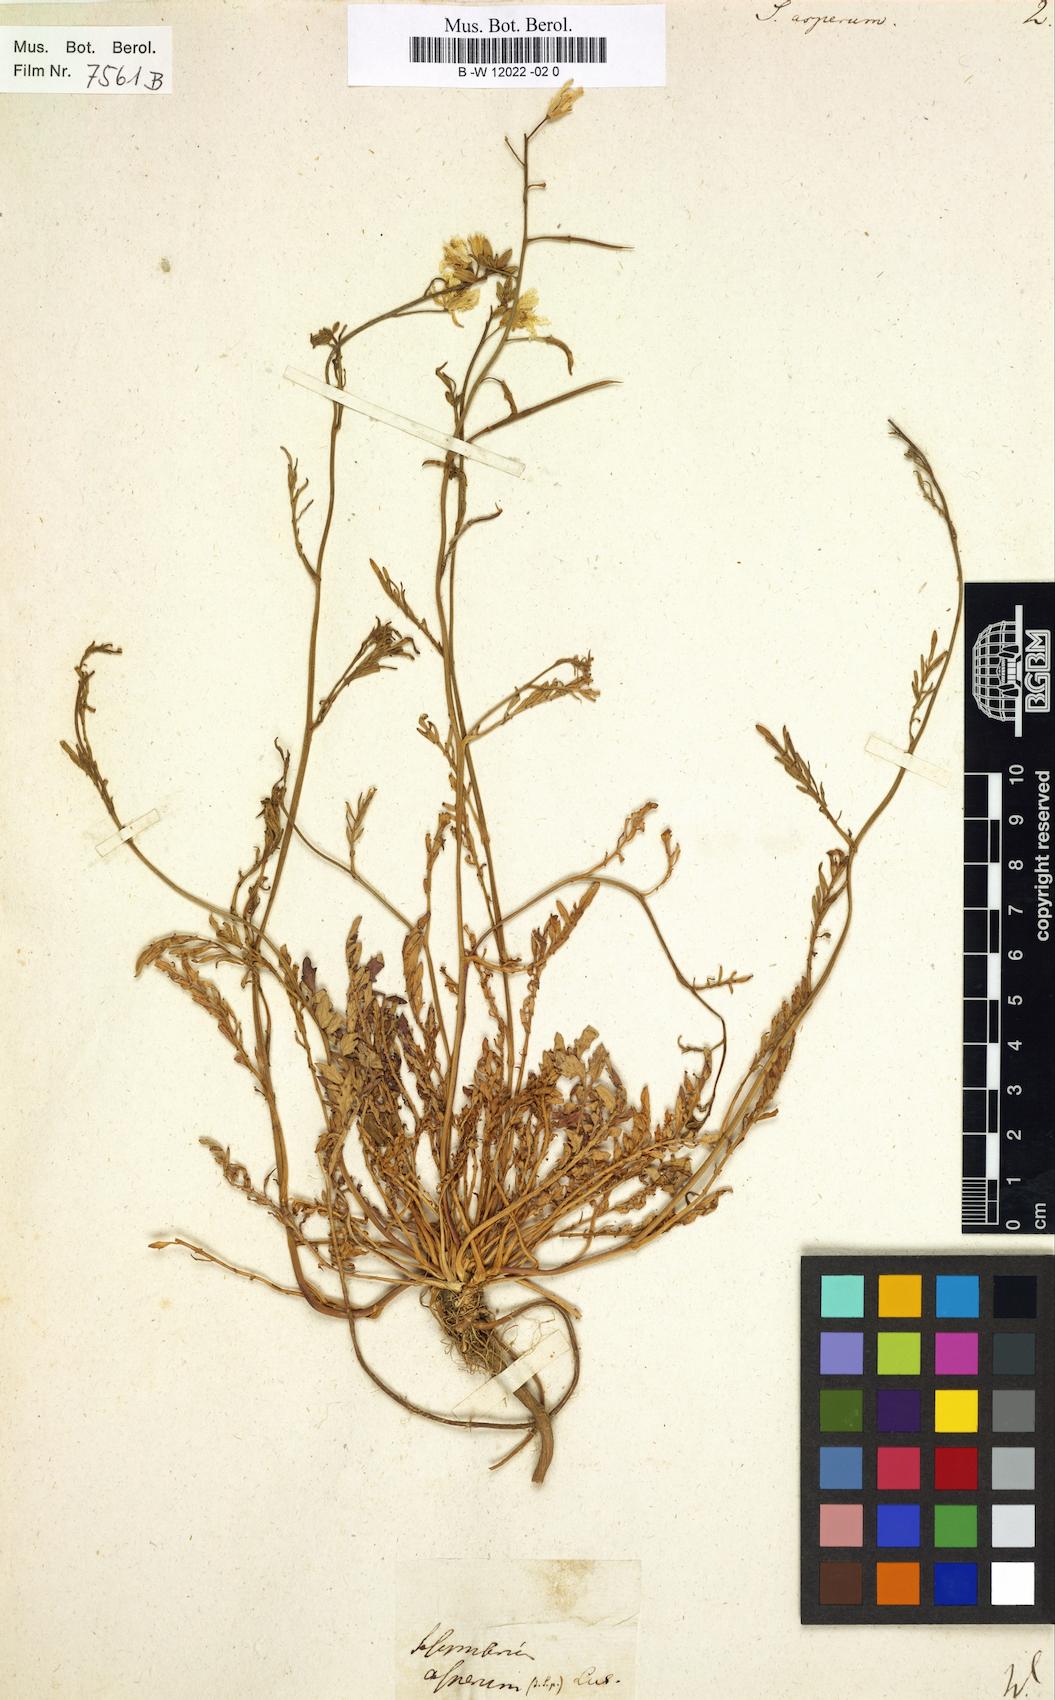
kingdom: Plantae
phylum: Tracheophyta
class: Magnoliopsida
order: Brassicales
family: Brassicaceae
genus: Sisymbrella
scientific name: Sisymbrella aspera
